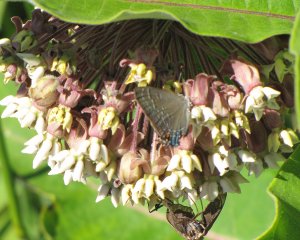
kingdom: Animalia
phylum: Arthropoda
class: Insecta
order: Lepidoptera
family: Lycaenidae
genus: Satyrium
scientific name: Satyrium calanus
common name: Banded Hairstreak
